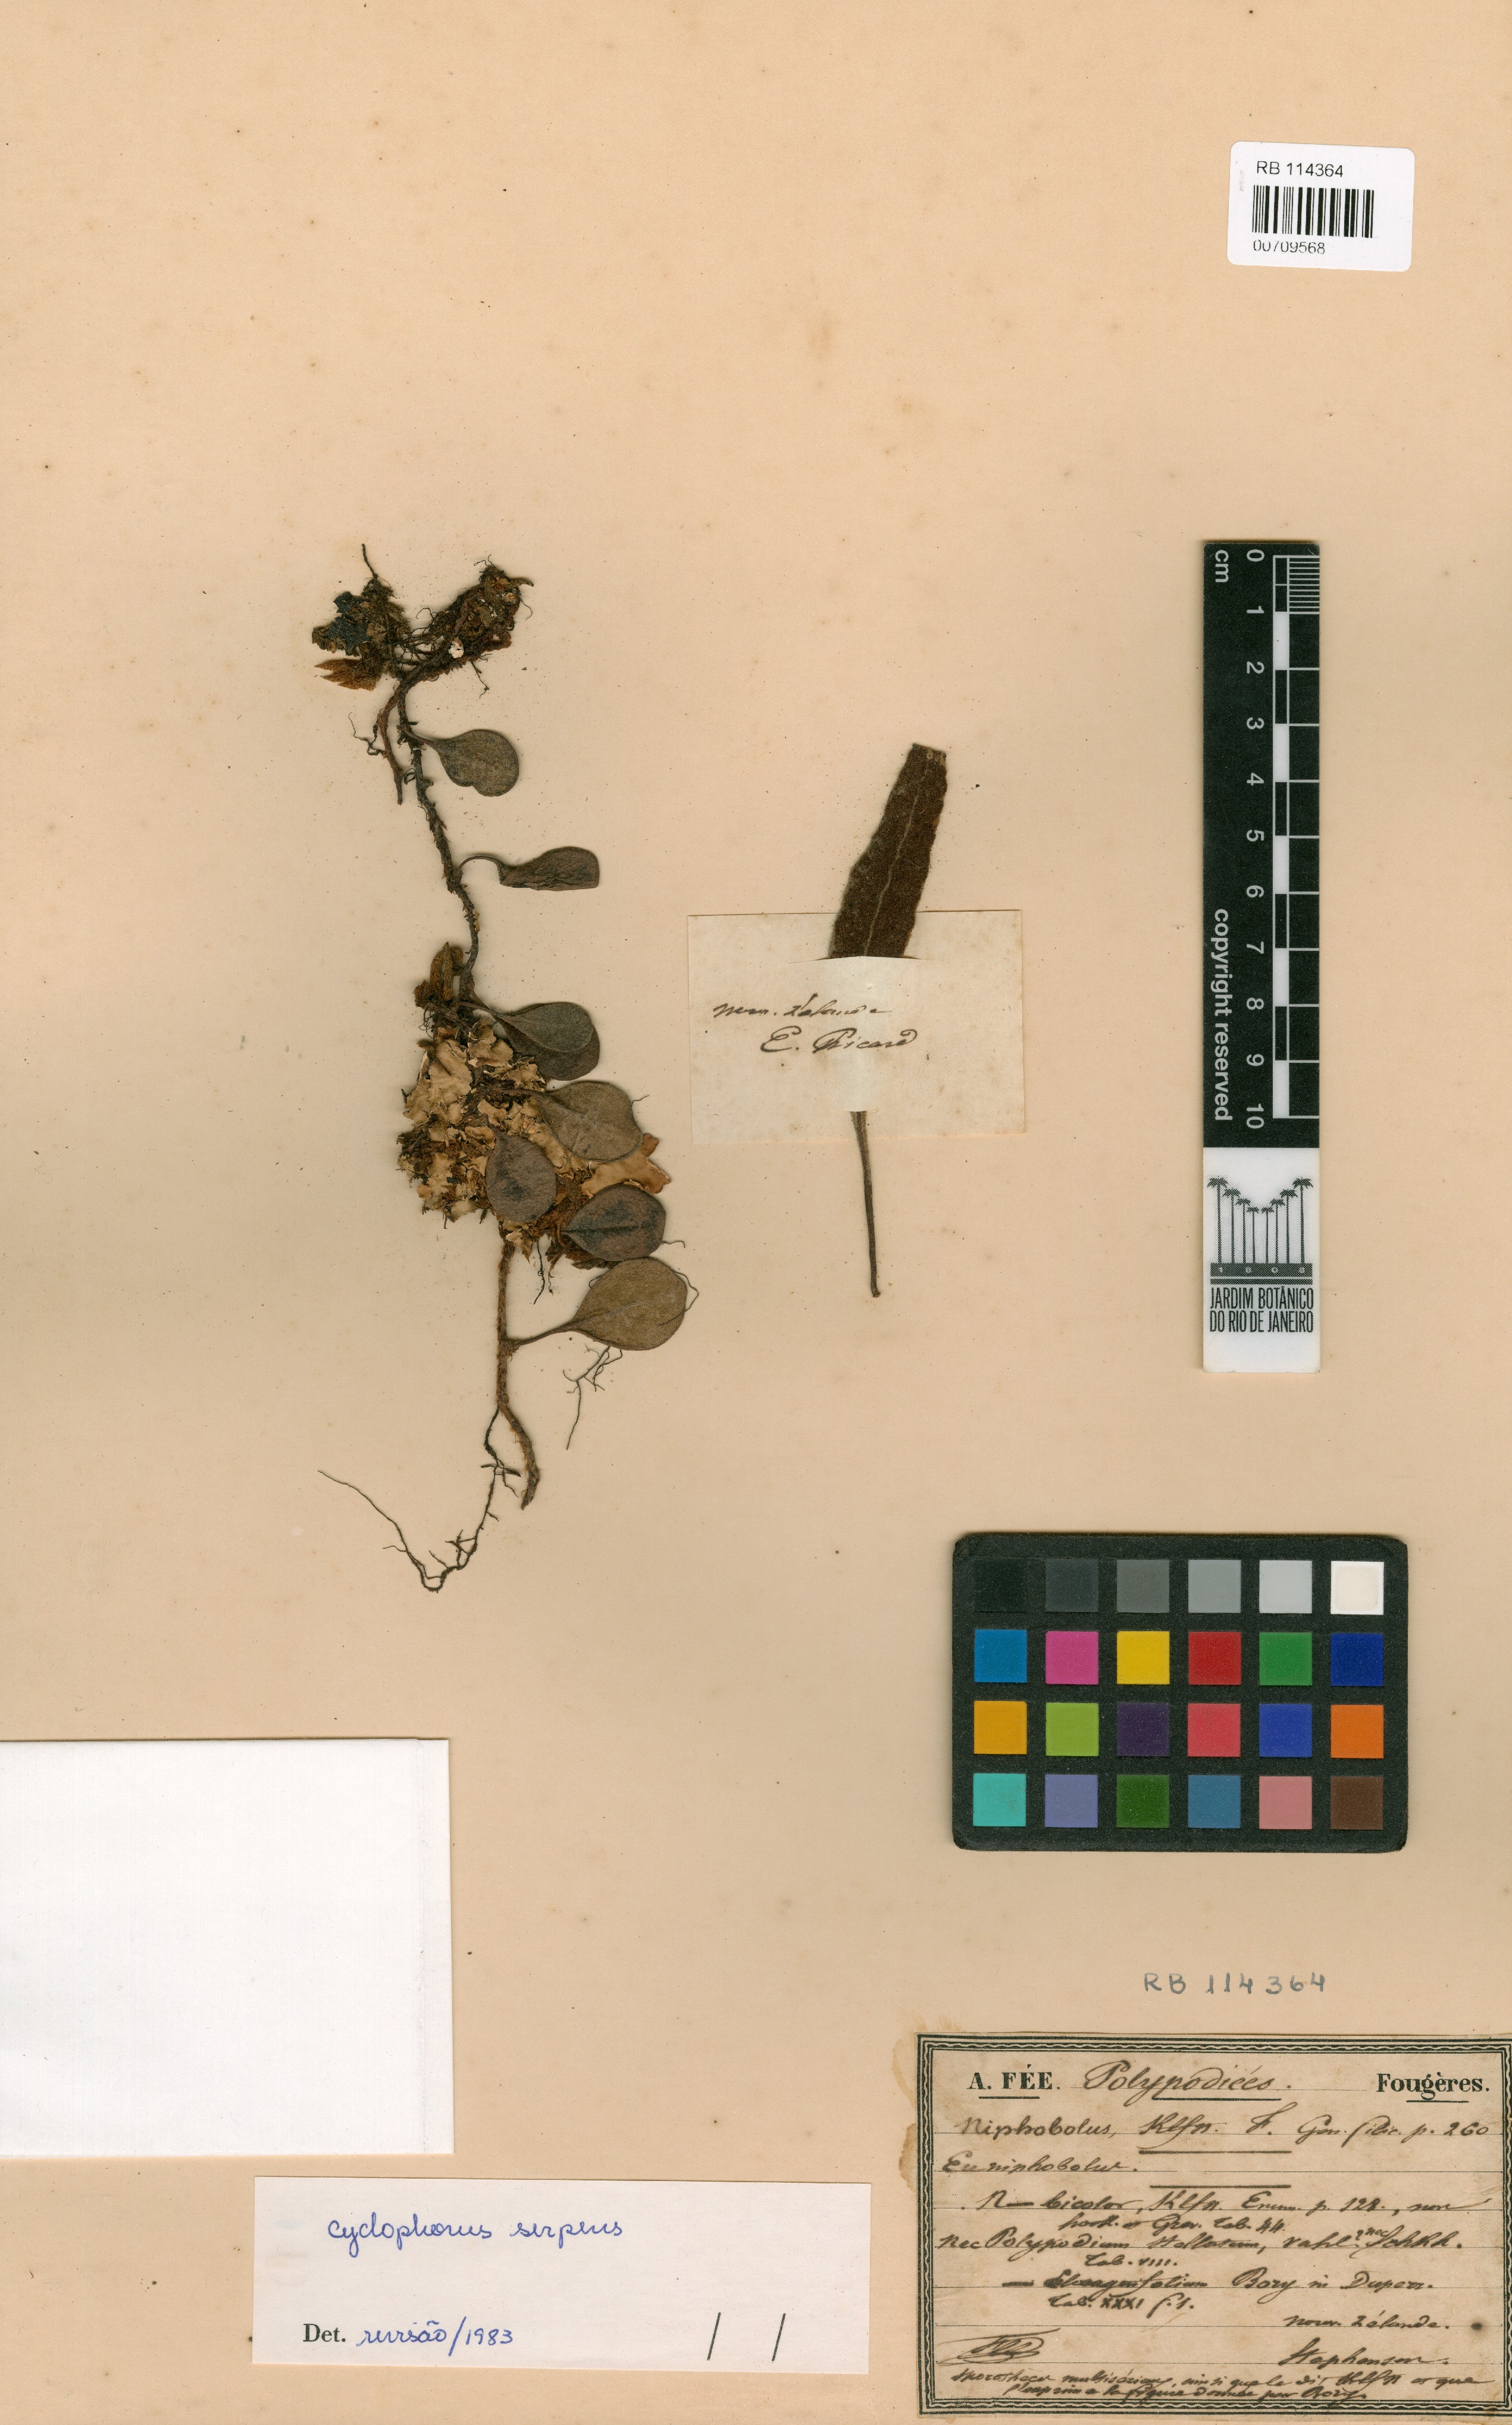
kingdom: Plantae
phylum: Tracheophyta
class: Polypodiopsida
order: Polypodiales
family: Polypodiaceae
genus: Pyrrosia
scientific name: Pyrrosia serpens
